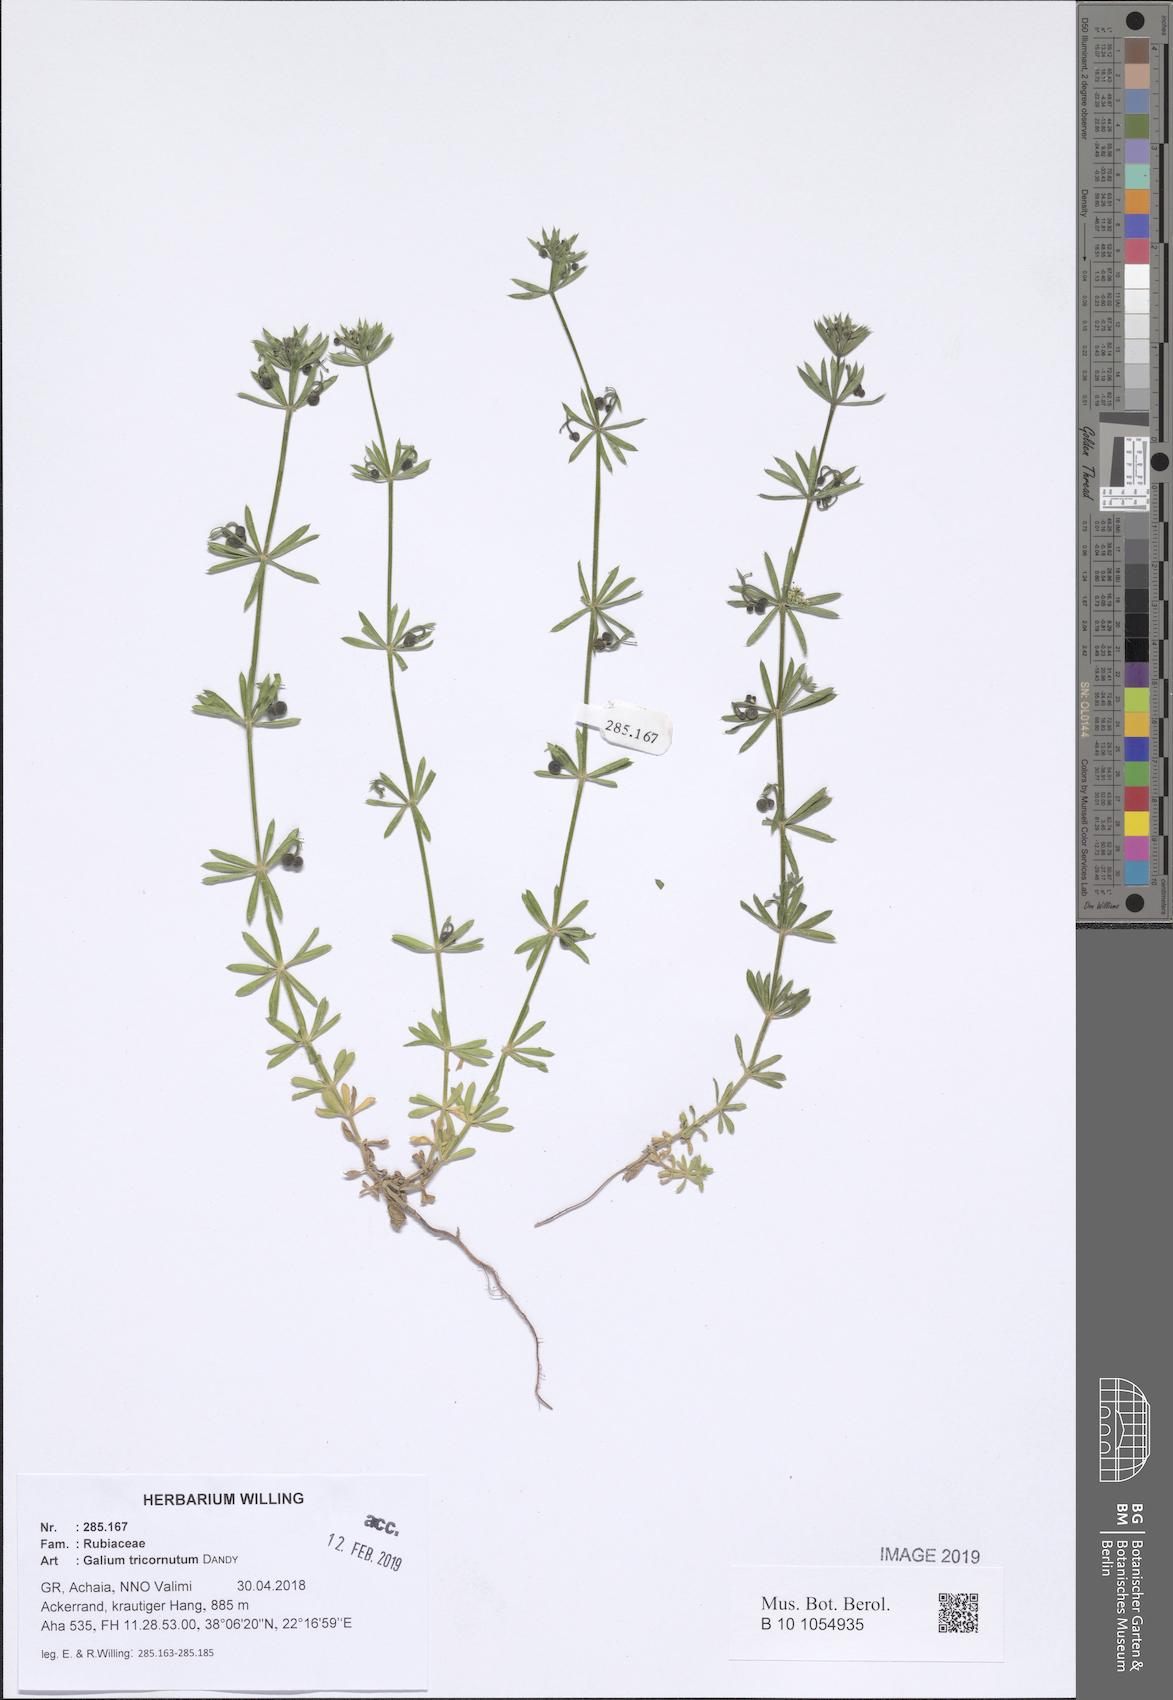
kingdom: Plantae
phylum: Tracheophyta
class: Magnoliopsida
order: Gentianales
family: Rubiaceae
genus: Galium
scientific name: Galium tricornutum
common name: Corn cleavers
